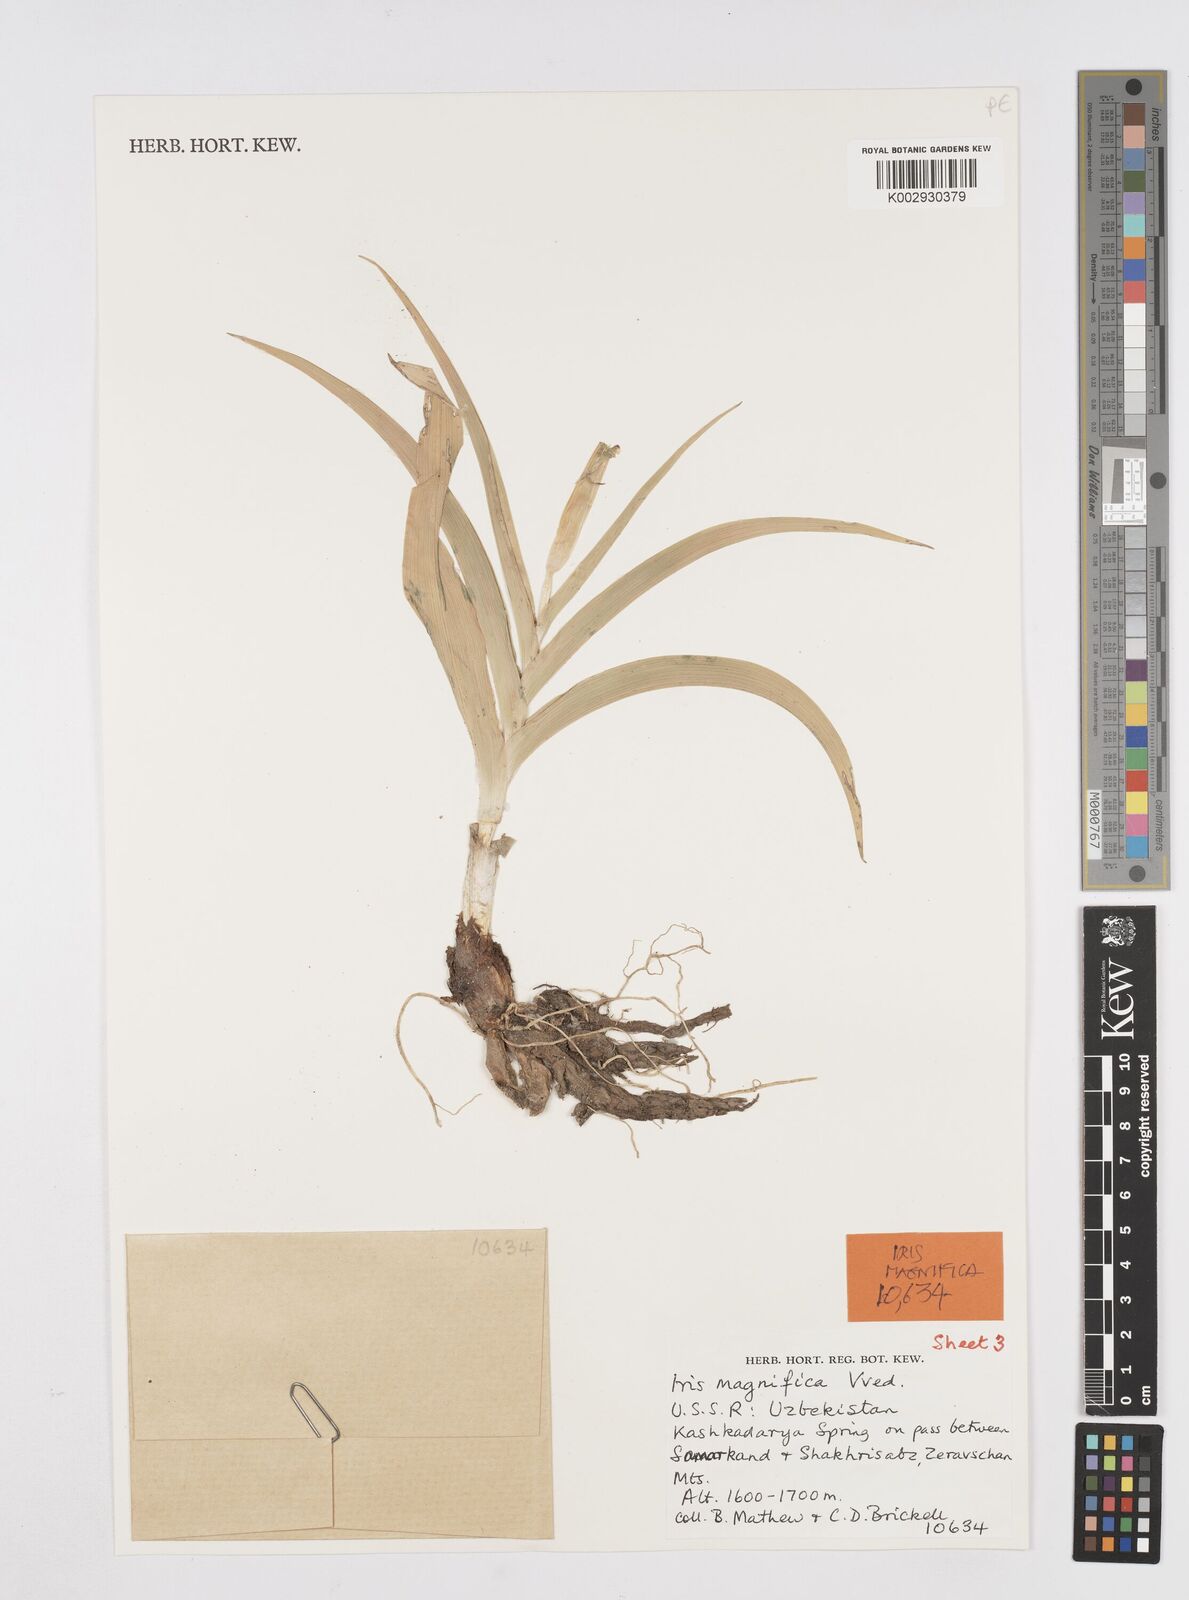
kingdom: Plantae
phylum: Tracheophyta
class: Liliopsida
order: Asparagales
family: Iridaceae
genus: Iris
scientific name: Iris magnifica
